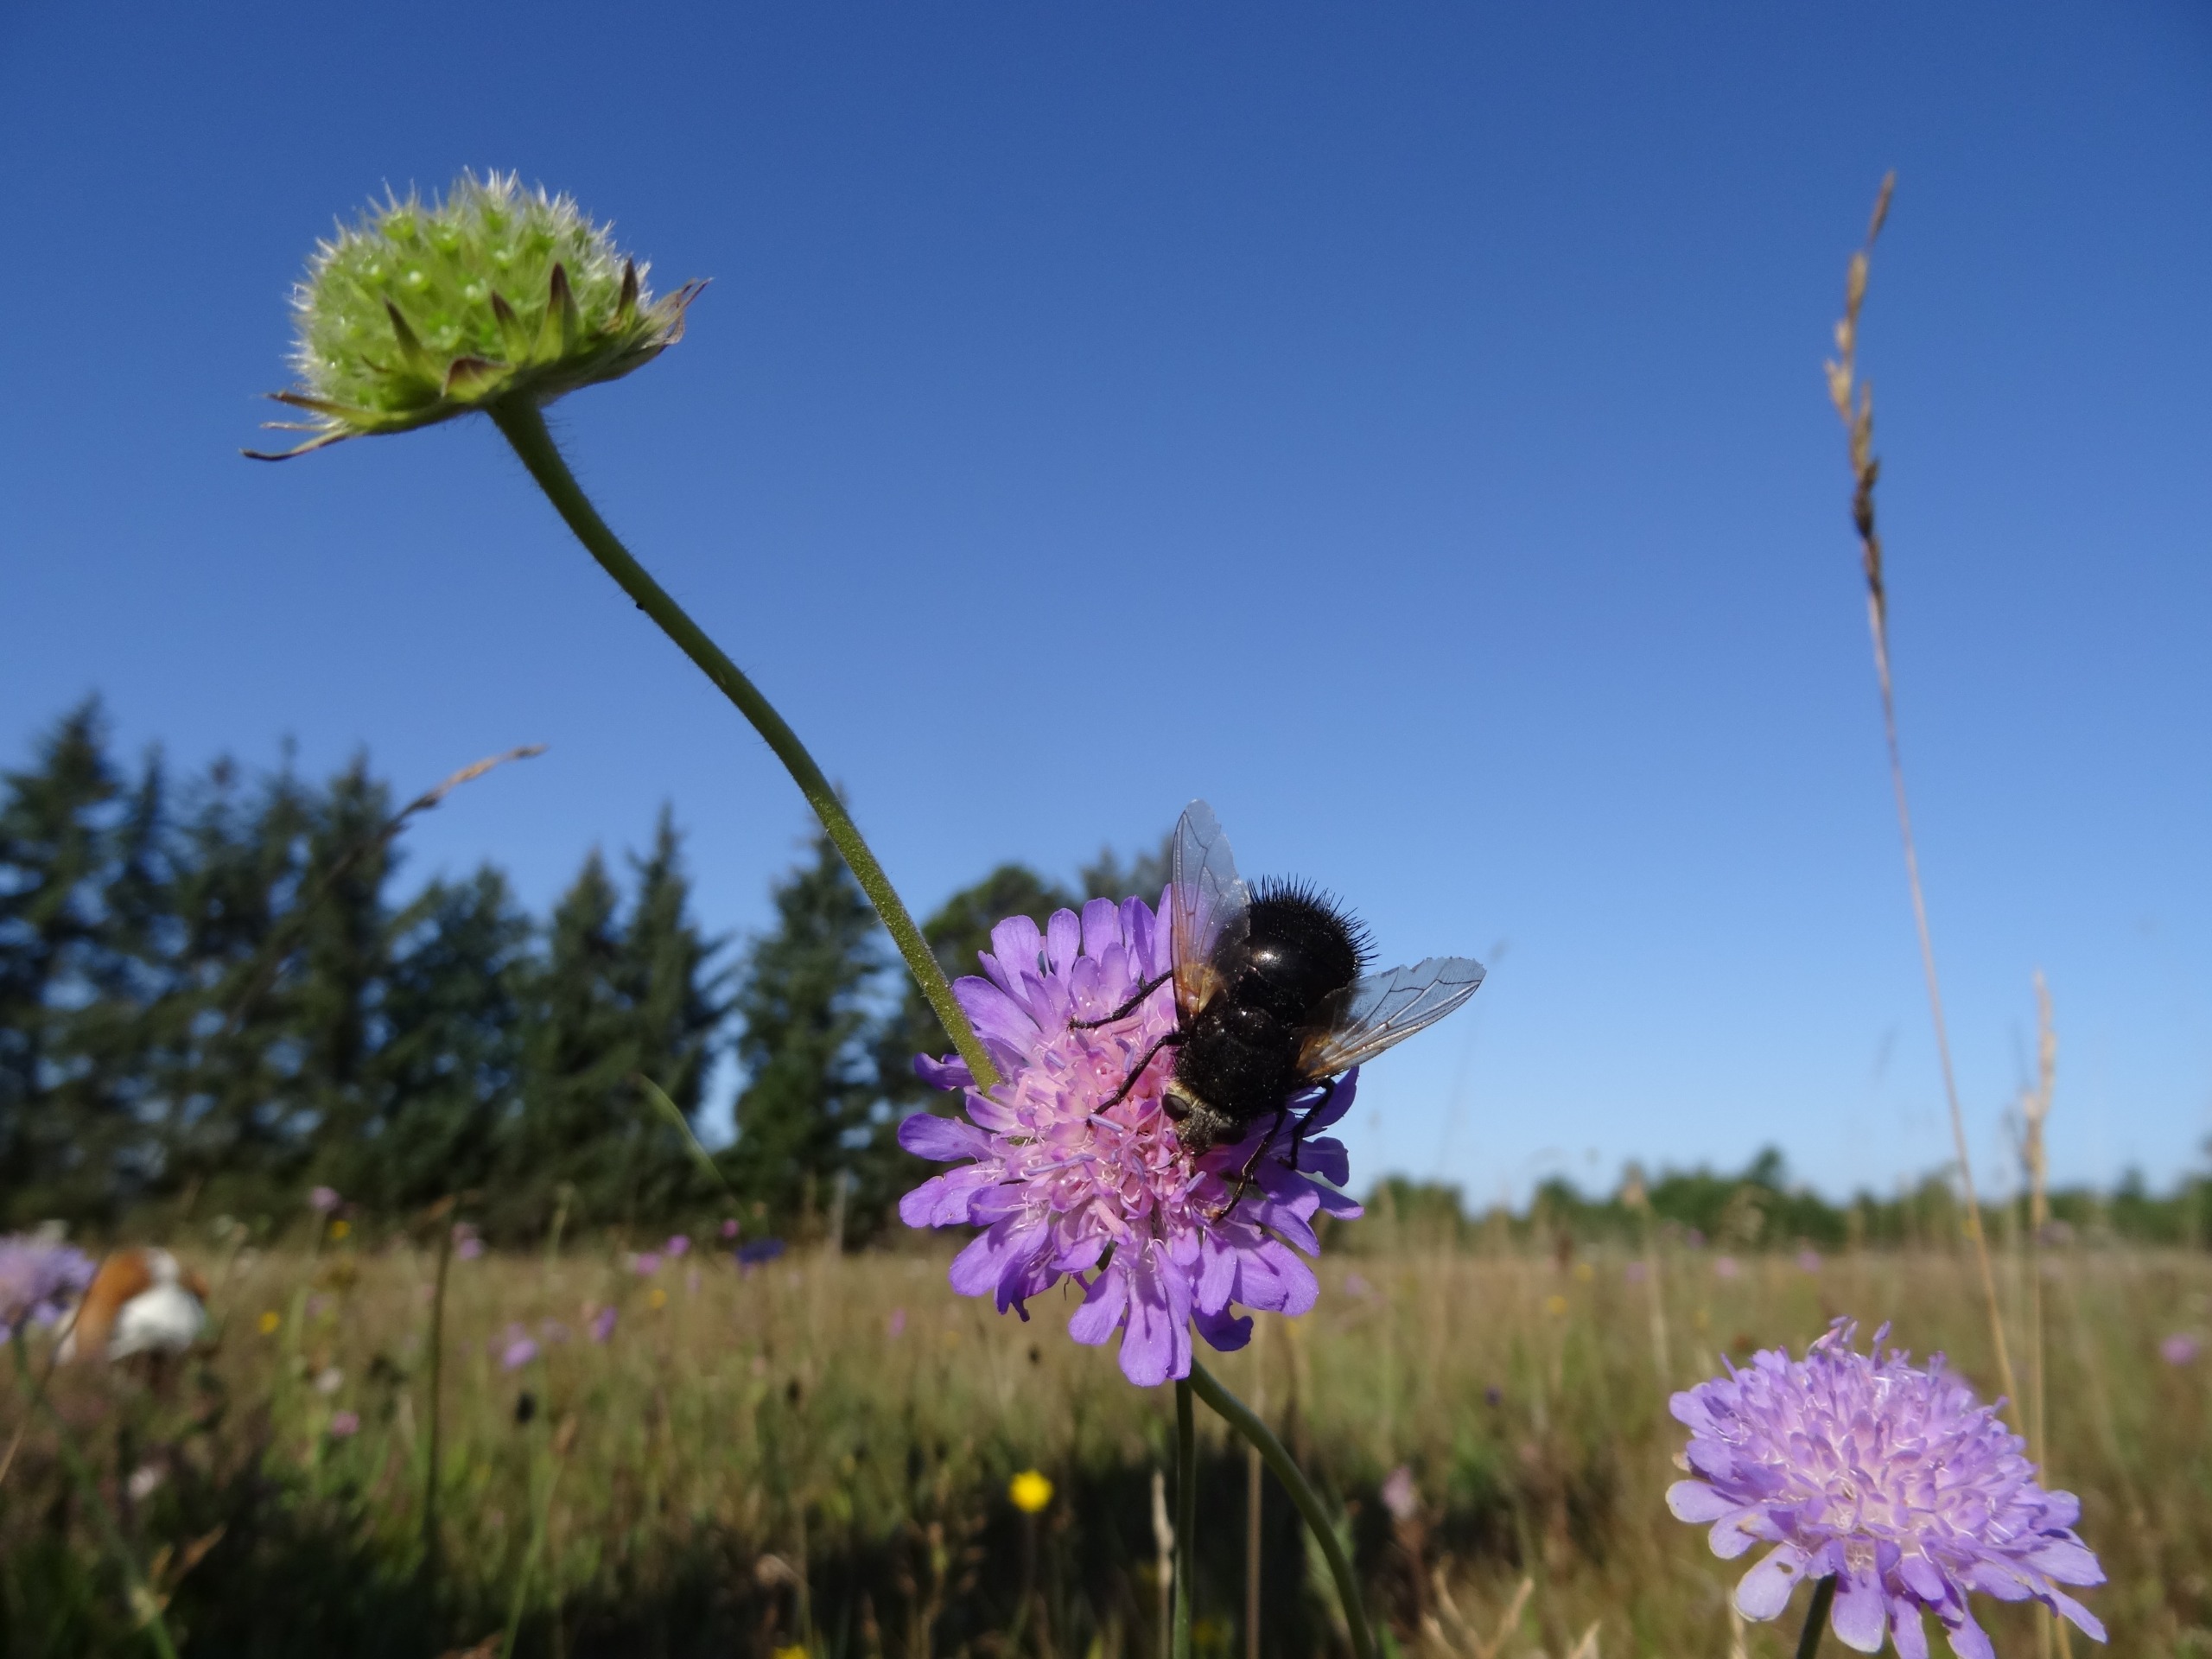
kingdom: Animalia
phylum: Arthropoda
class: Insecta
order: Diptera
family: Tachinidae
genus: Tachina
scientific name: Tachina grossa
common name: Kæmpefluen Harald
